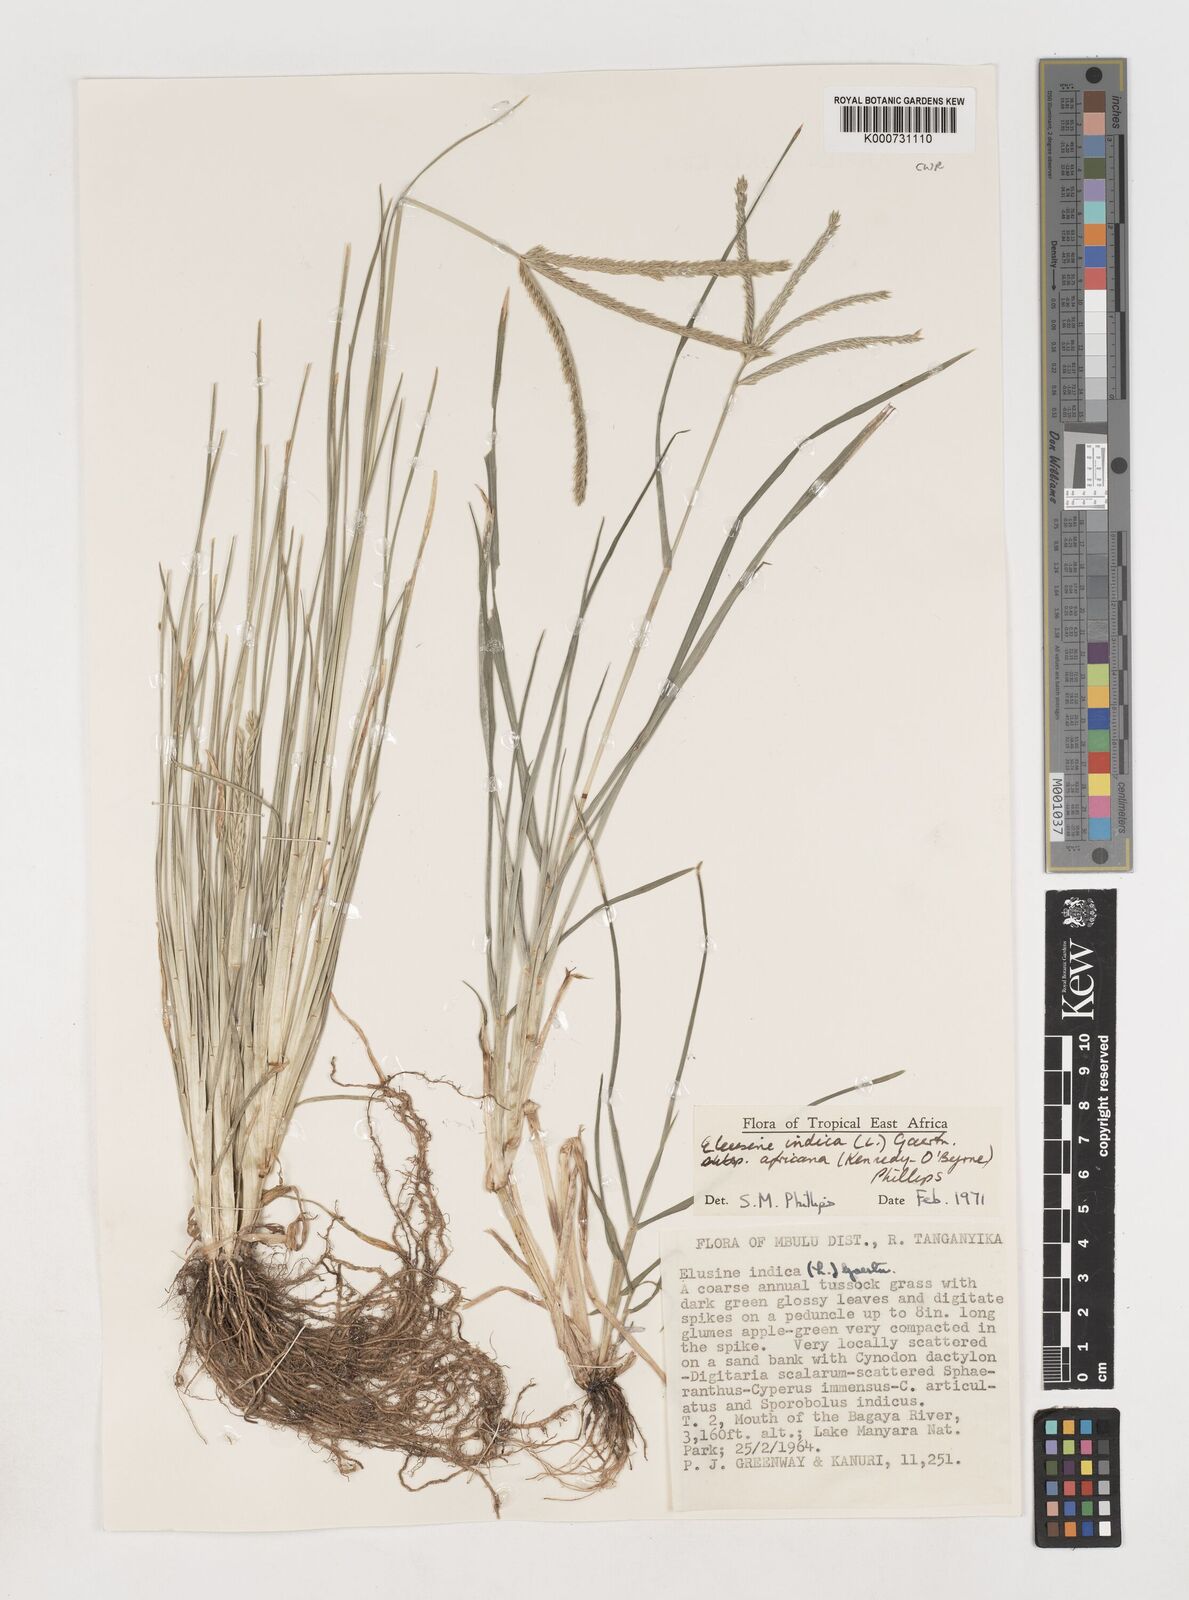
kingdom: Plantae
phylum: Tracheophyta
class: Liliopsida
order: Poales
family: Poaceae
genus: Eleusine
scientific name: Eleusine africana
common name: Wild african finger millet
